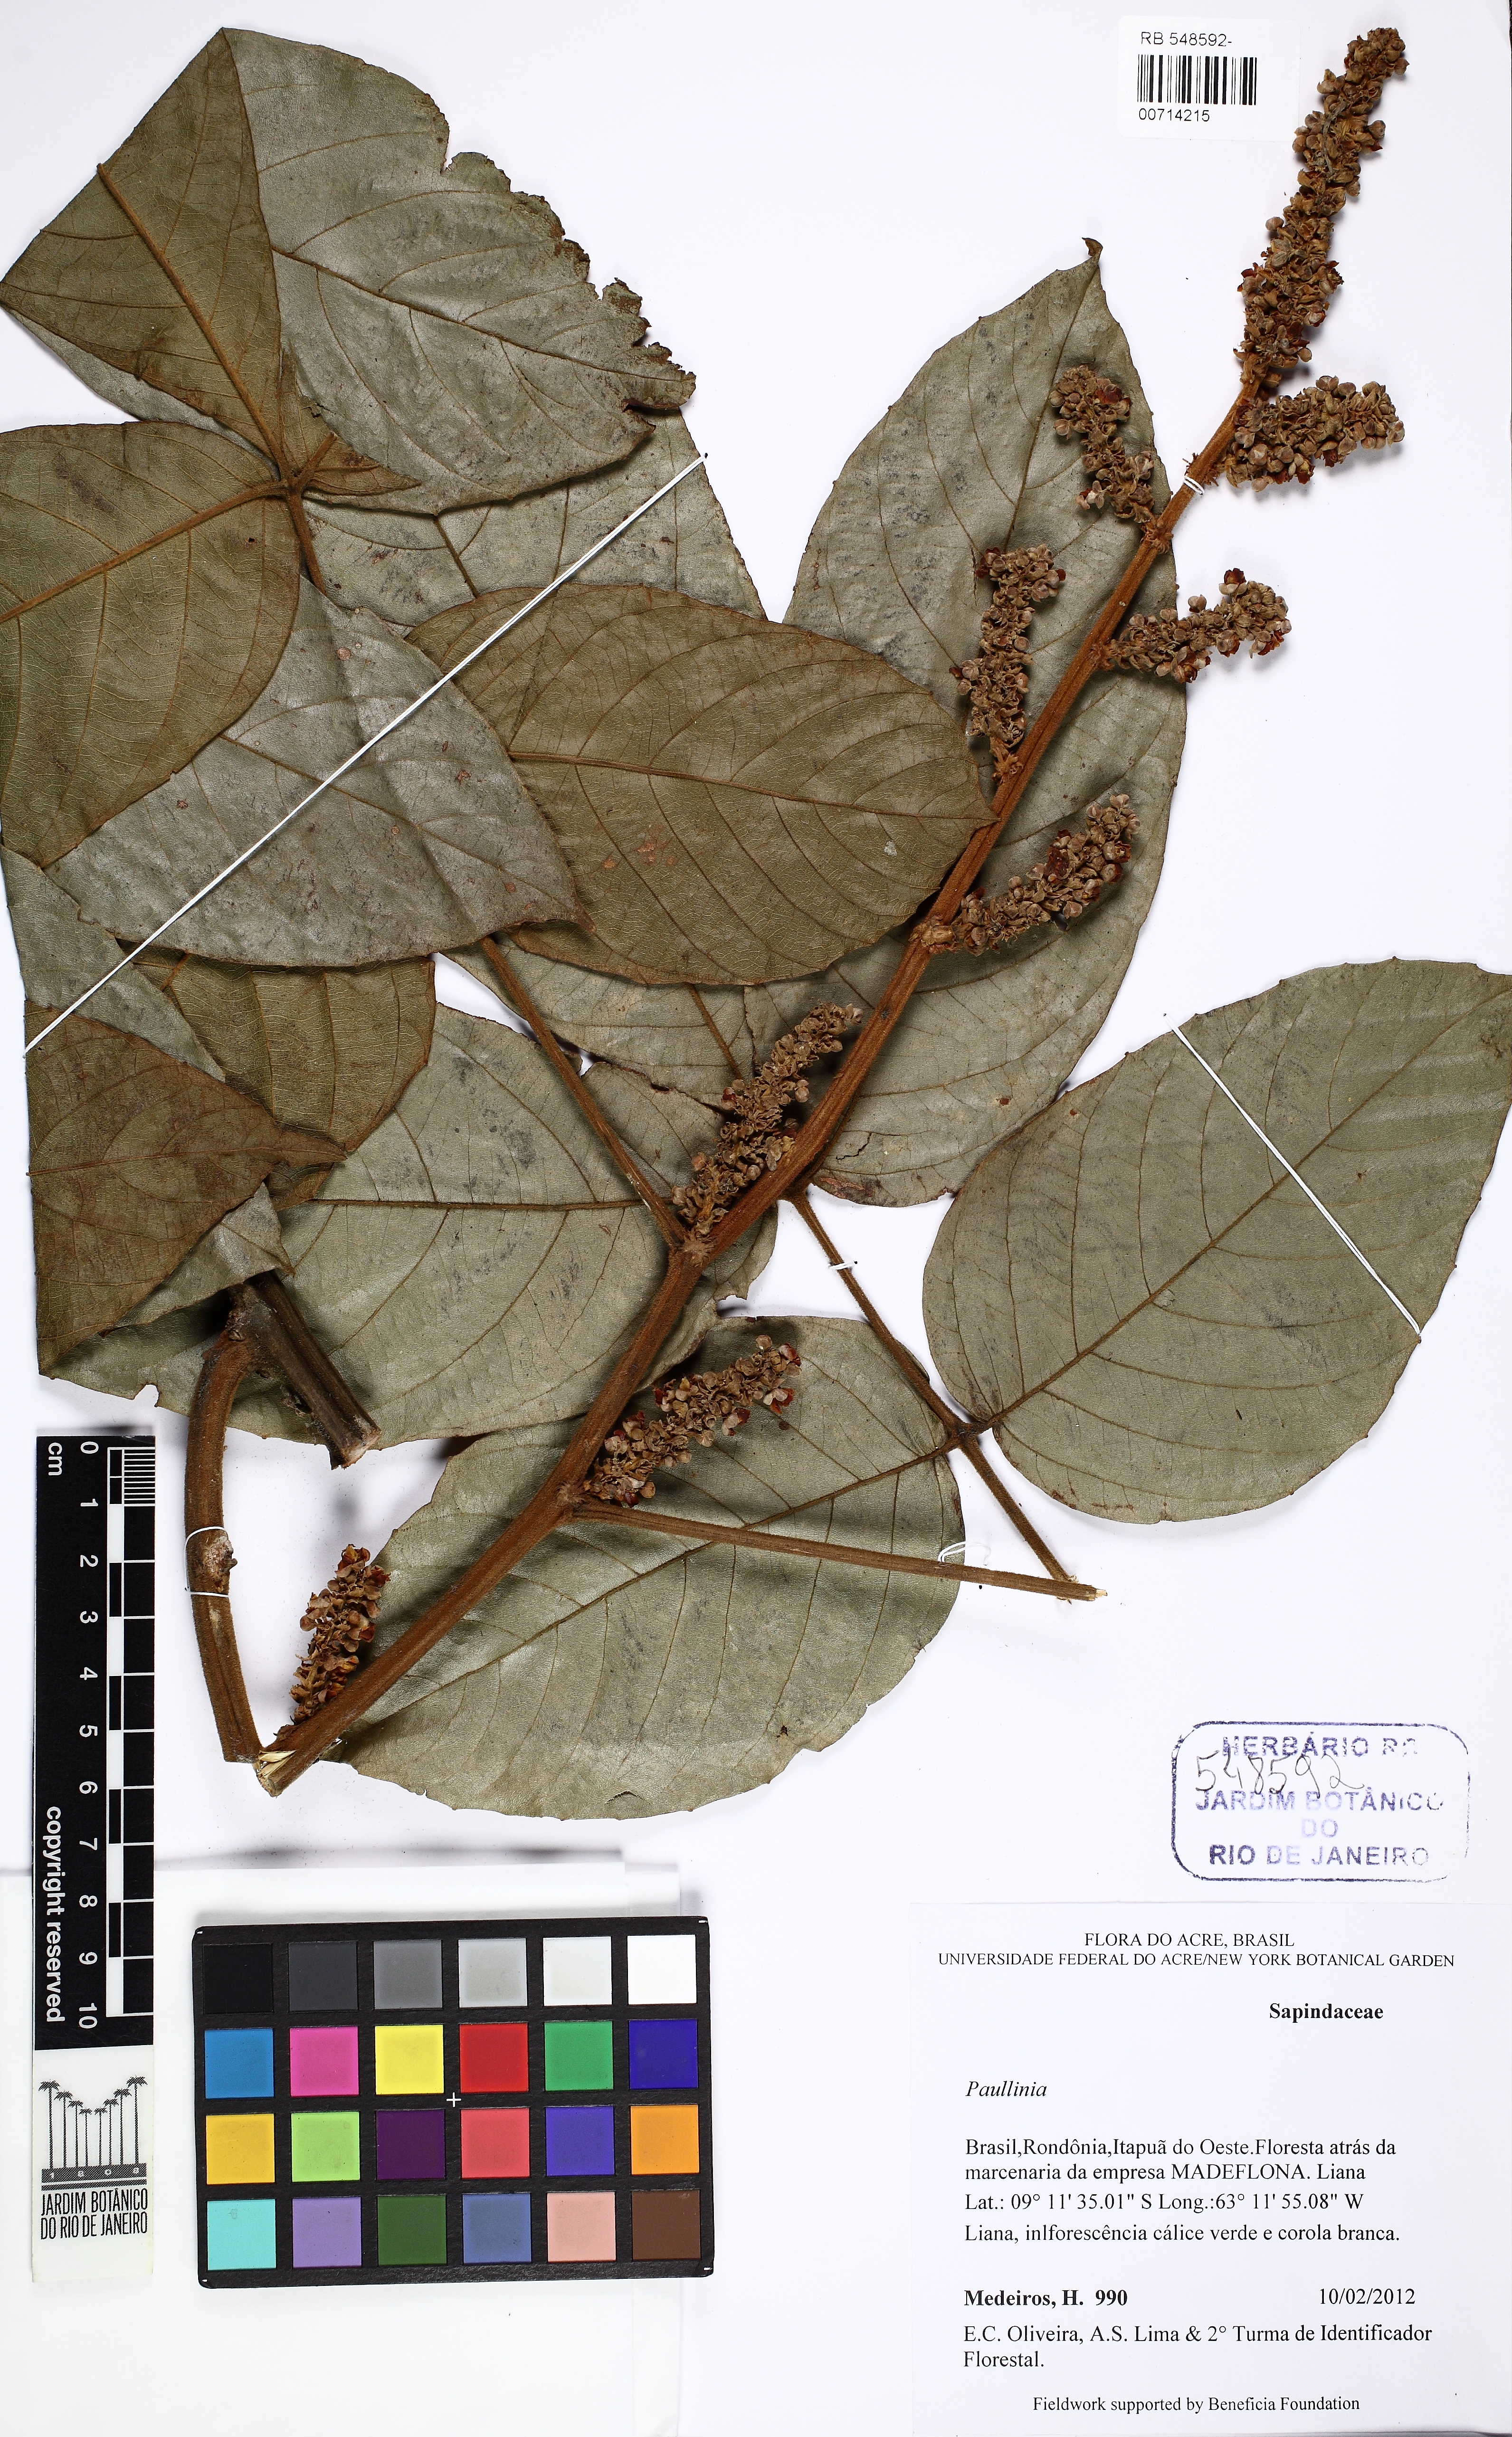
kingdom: Plantae
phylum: Tracheophyta
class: Magnoliopsida
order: Sapindales
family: Sapindaceae
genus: Paullinia
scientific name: Paullinia
